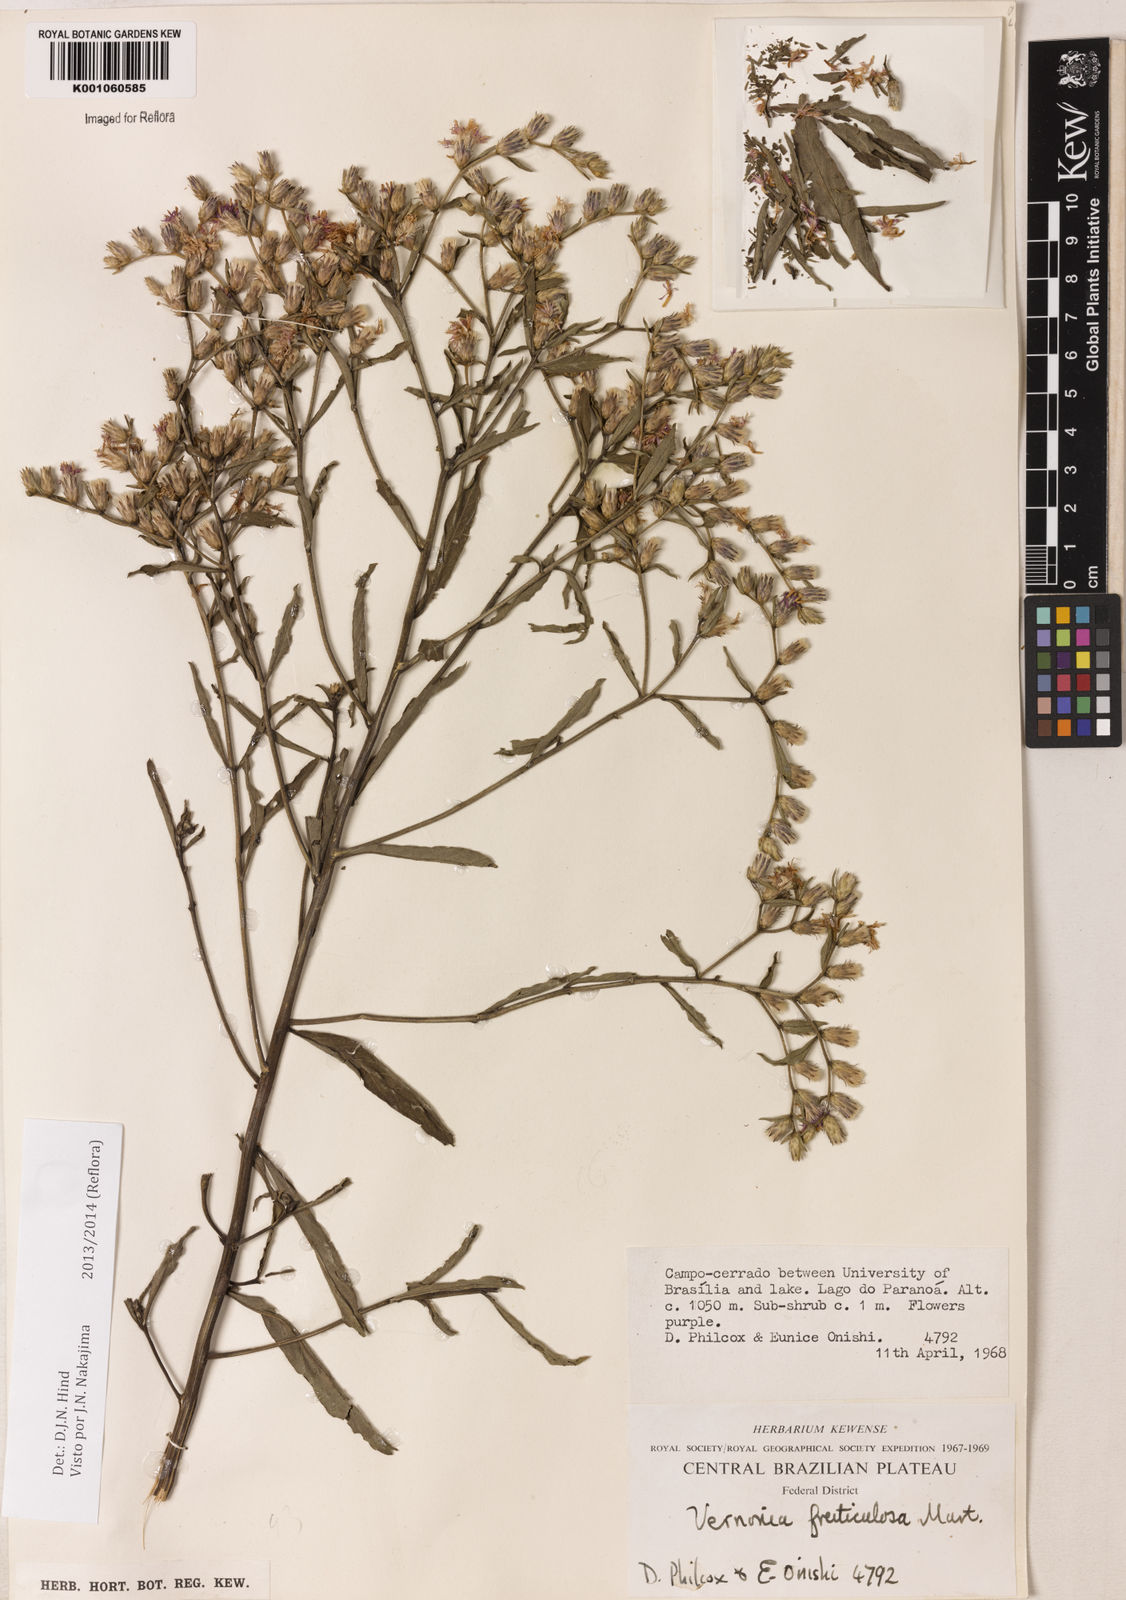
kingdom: Plantae
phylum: Tracheophyta
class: Magnoliopsida
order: Asterales
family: Asteraceae
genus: Lepidaploa
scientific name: Lepidaploa rufogrisea
